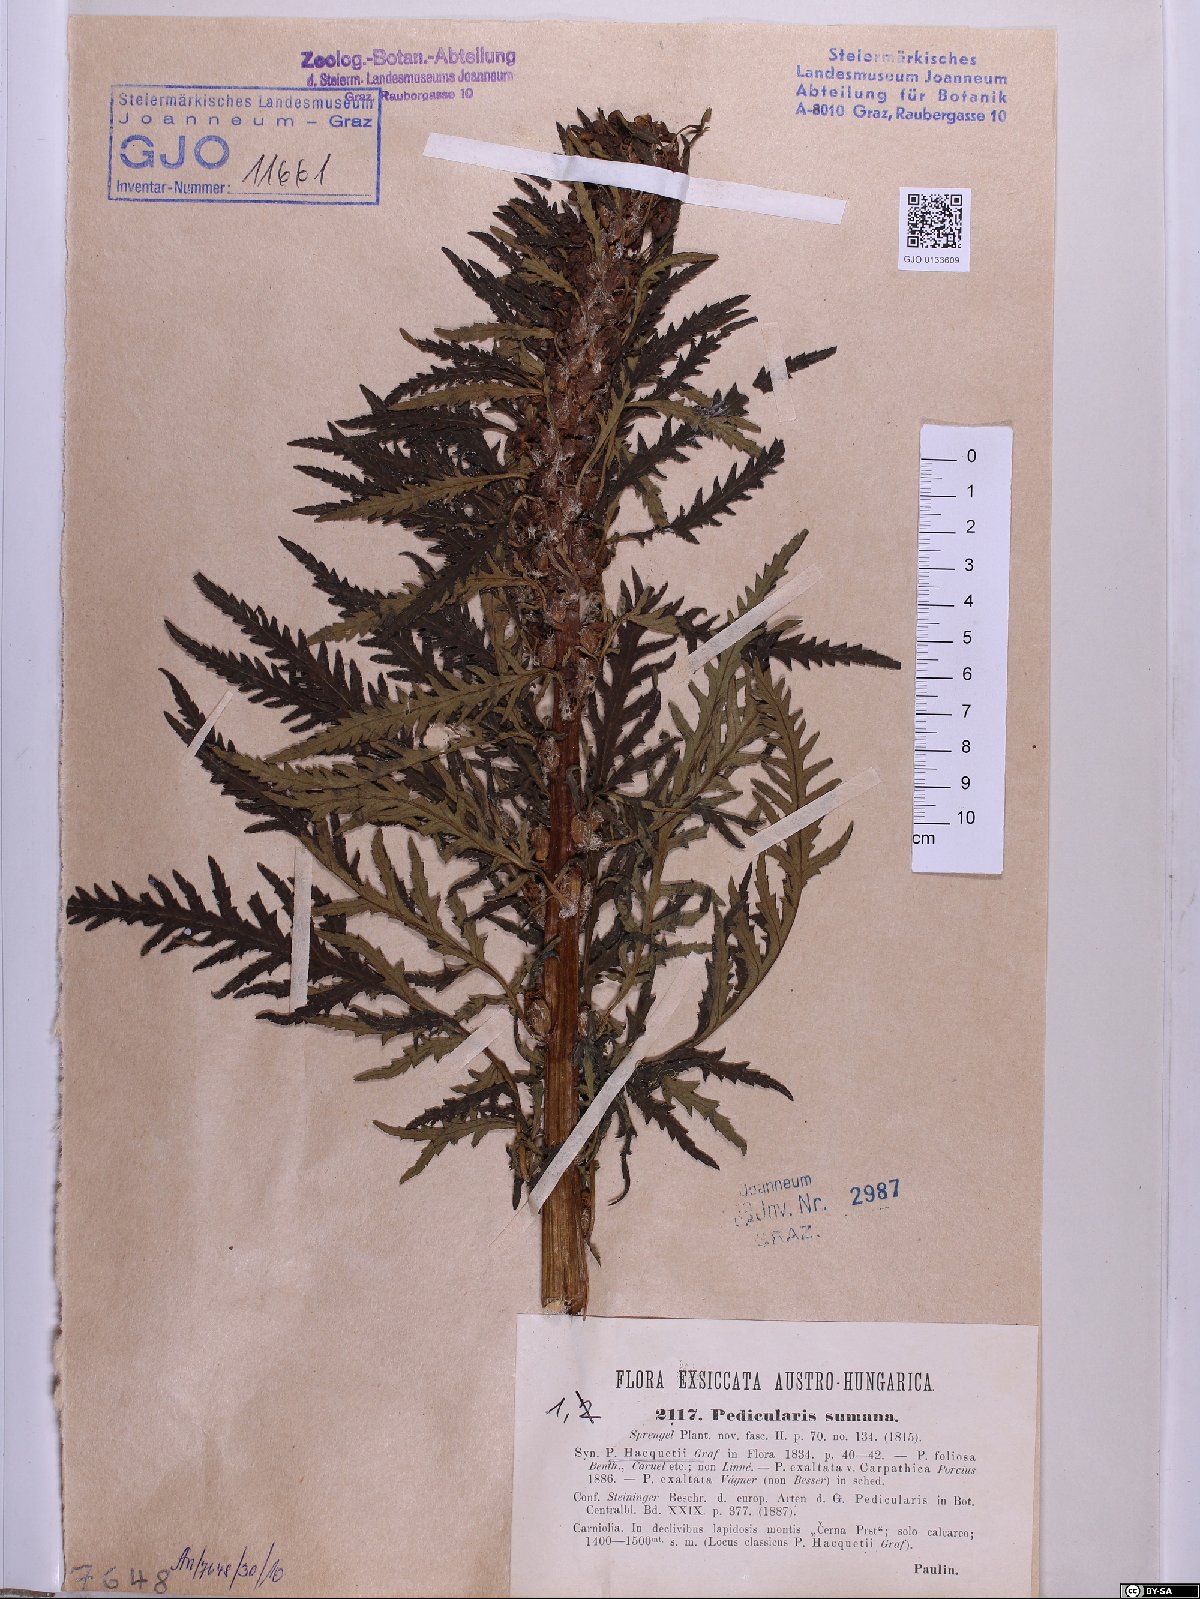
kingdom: Plantae
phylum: Tracheophyta
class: Magnoliopsida
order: Lamiales
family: Scrophulariaceae
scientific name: Scrophulariaceae
